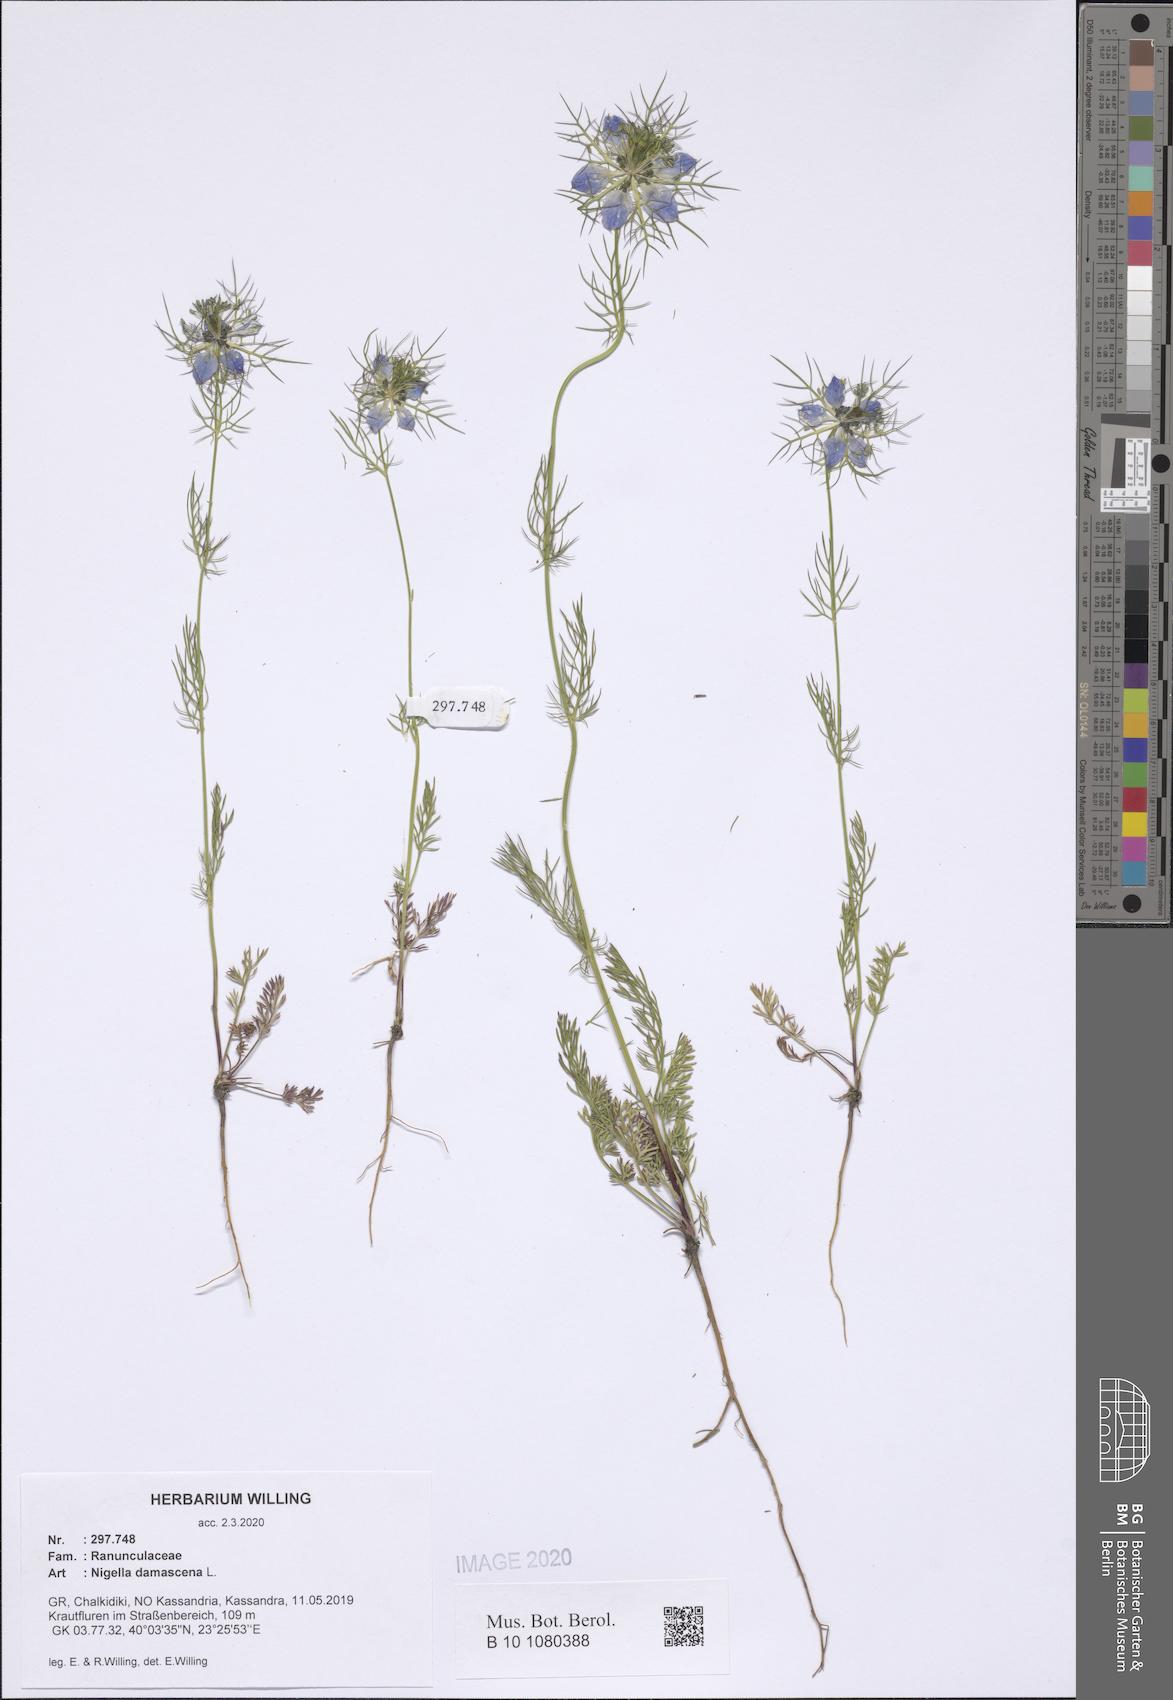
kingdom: Plantae
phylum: Tracheophyta
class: Magnoliopsida
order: Ranunculales
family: Ranunculaceae
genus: Nigella
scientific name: Nigella damascena
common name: Love-in-a-mist
